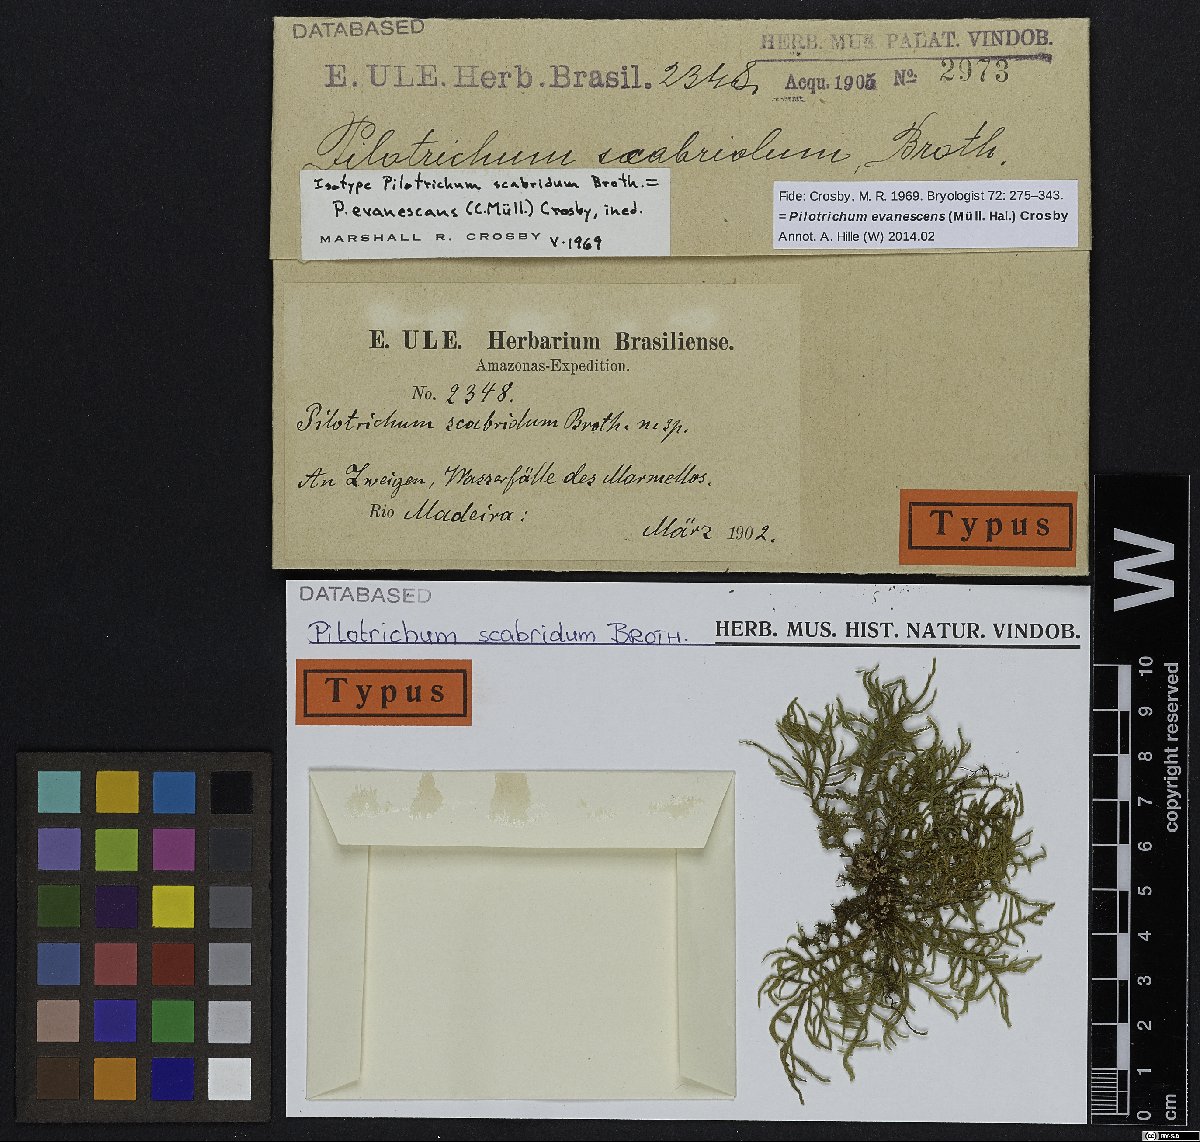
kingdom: Plantae
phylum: Bryophyta
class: Bryopsida
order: Hookeriales
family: Pilotrichaceae
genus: Pilotrichum
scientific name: Pilotrichum evanescens
